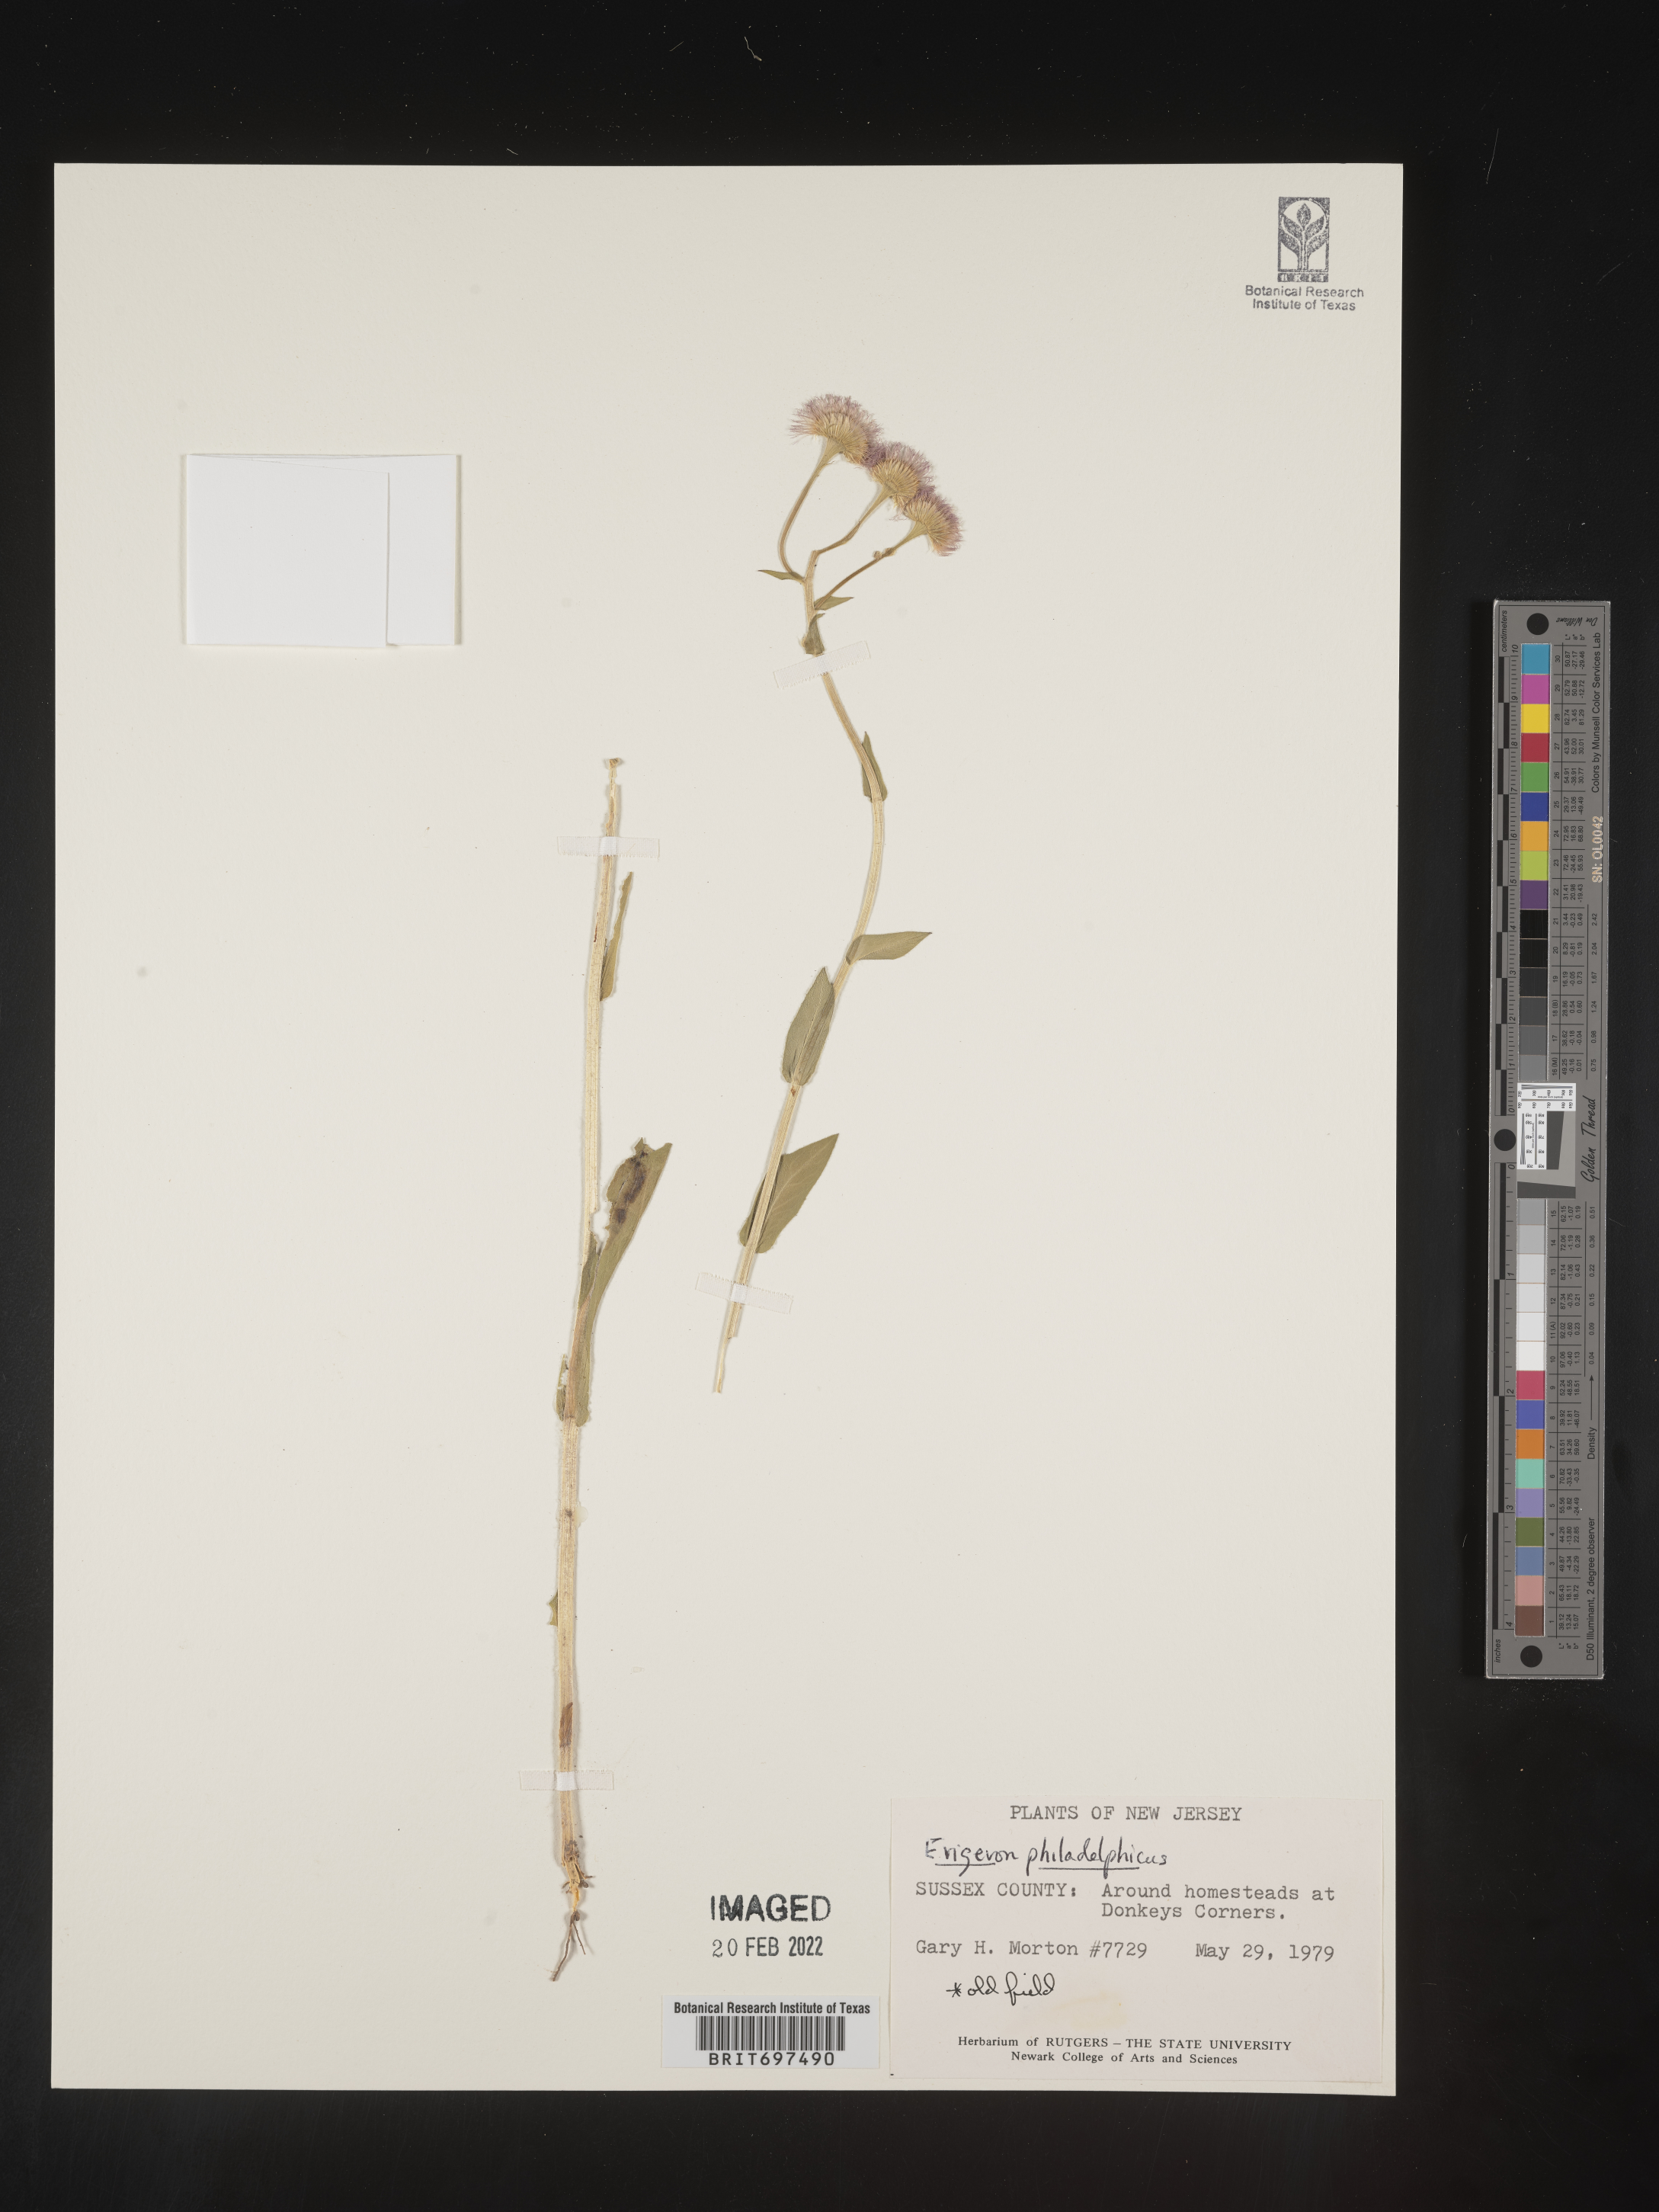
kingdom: Plantae
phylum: Tracheophyta
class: Magnoliopsida
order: Asterales
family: Asteraceae
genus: Erigeron
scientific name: Erigeron philadelphicus
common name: Robin's-plantain
